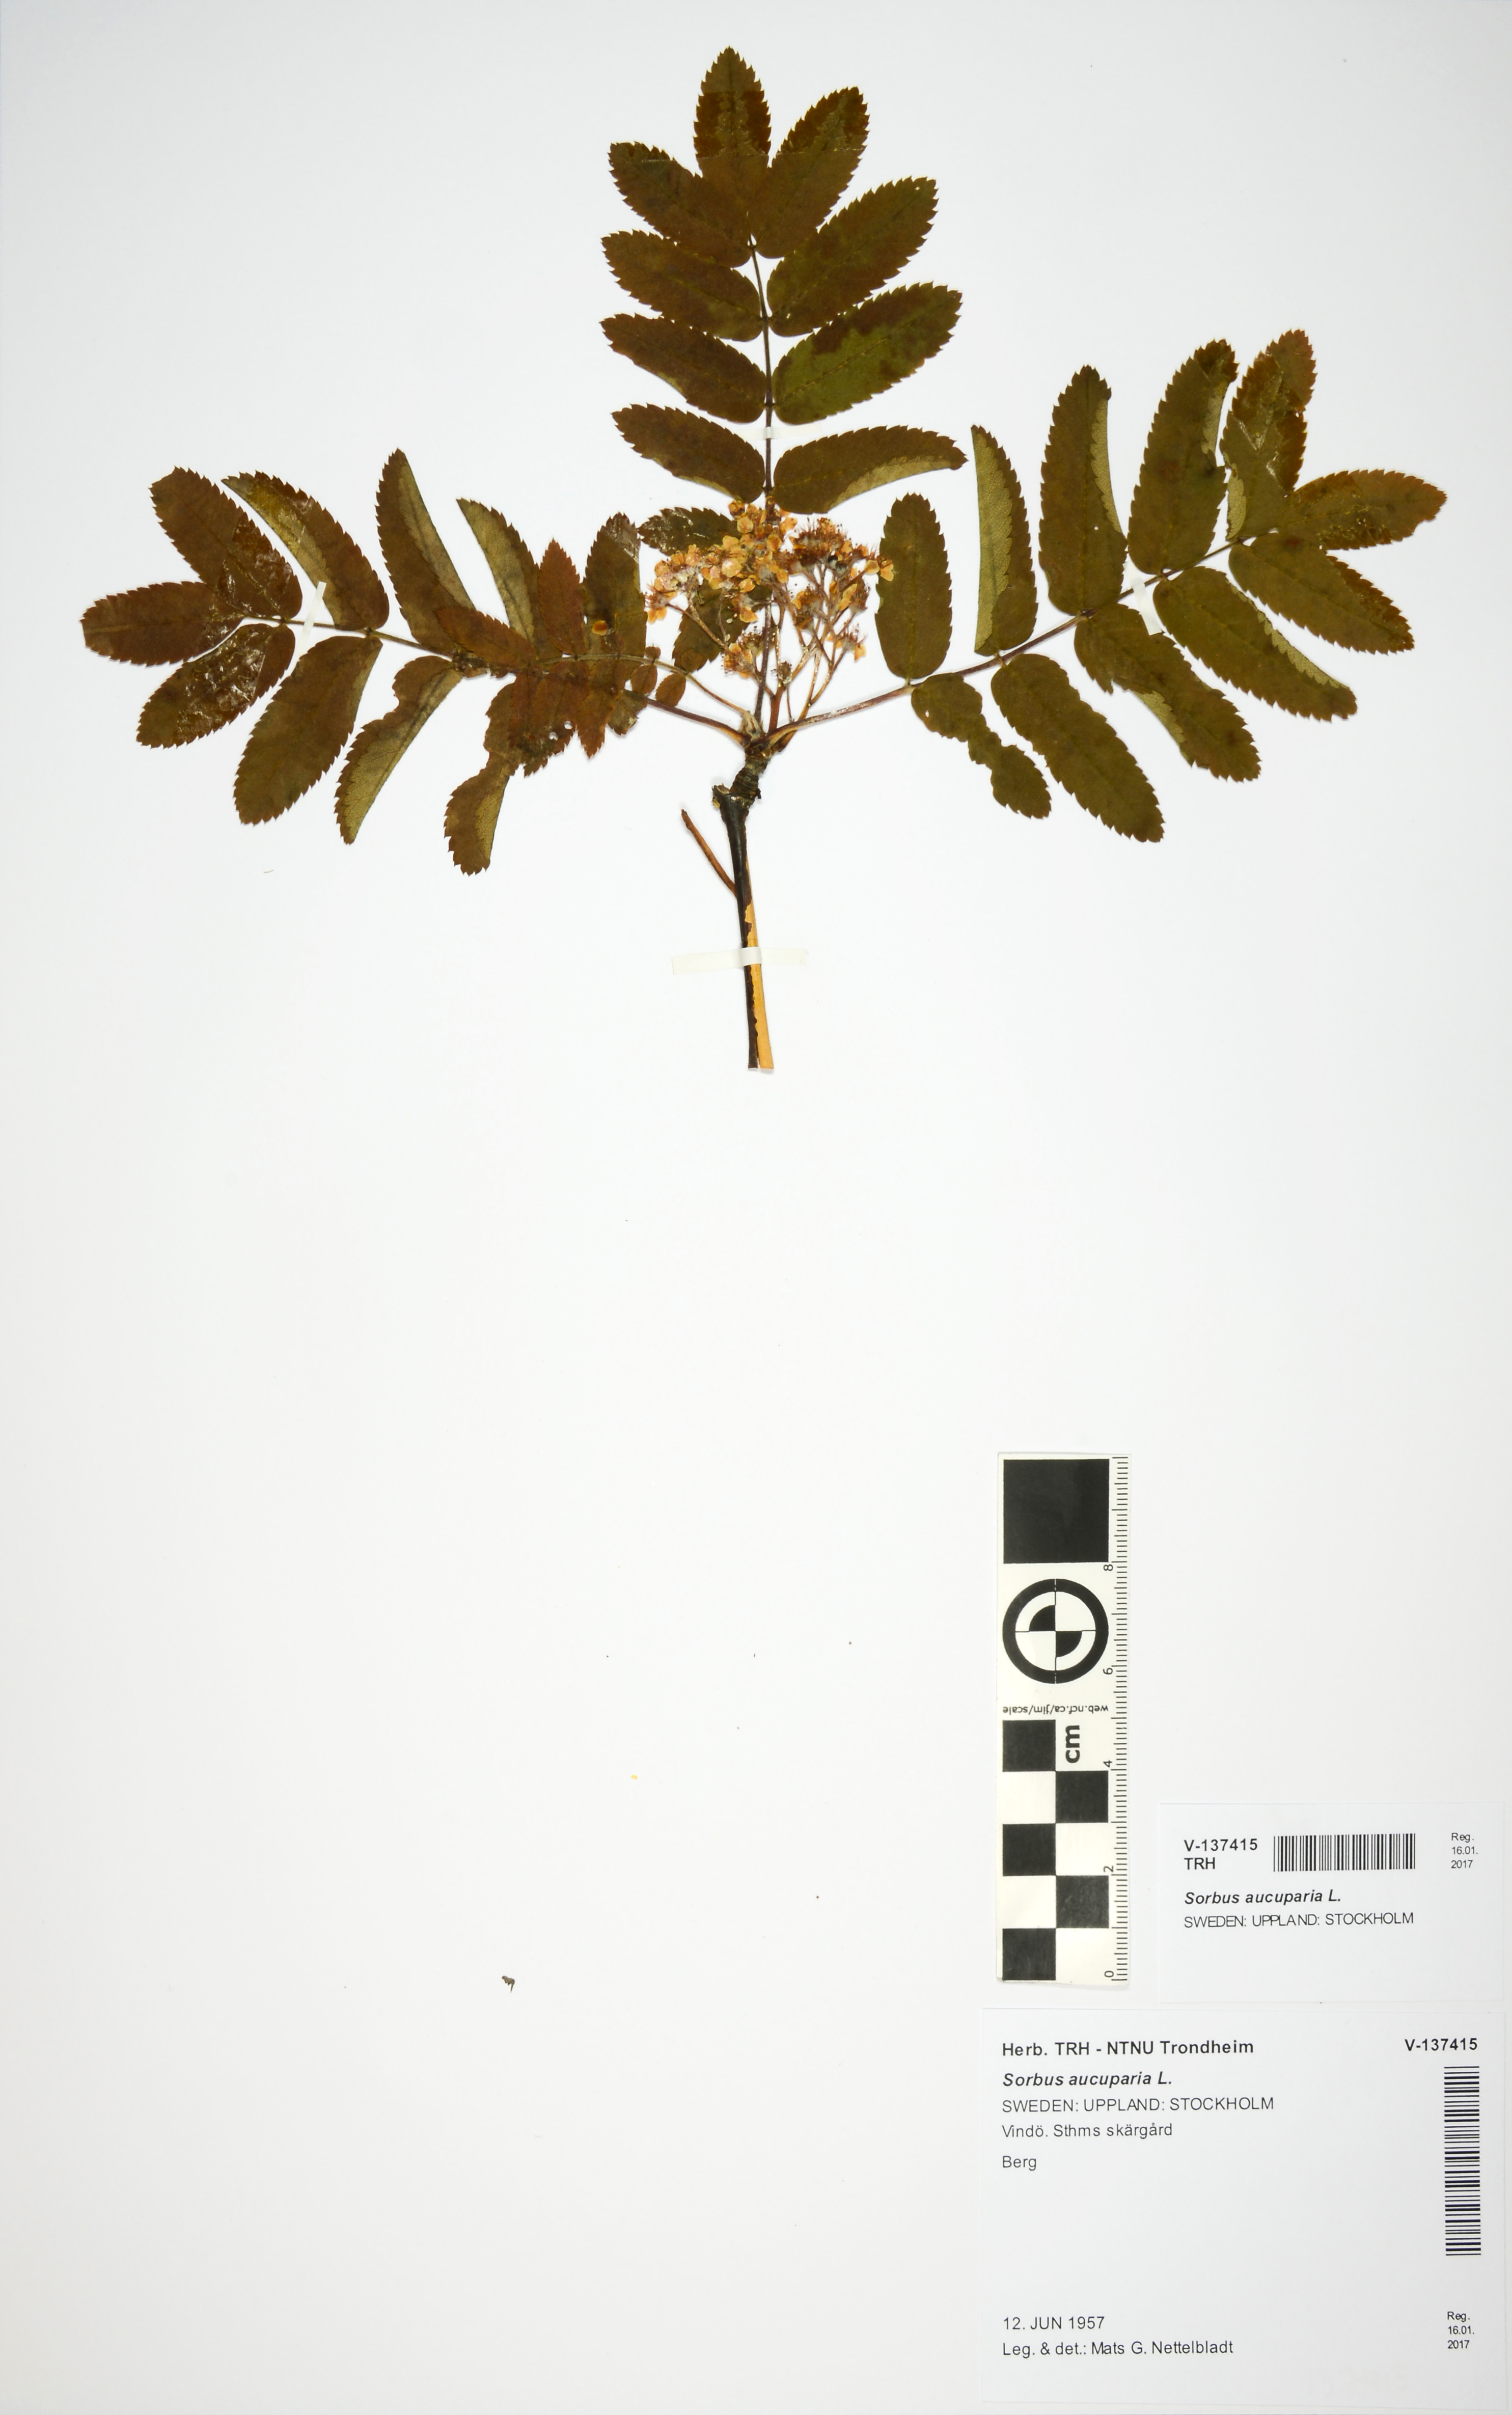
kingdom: Plantae
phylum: Tracheophyta
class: Magnoliopsida
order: Rosales
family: Rosaceae
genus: Sorbus
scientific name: Sorbus aucuparia
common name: Rowan
